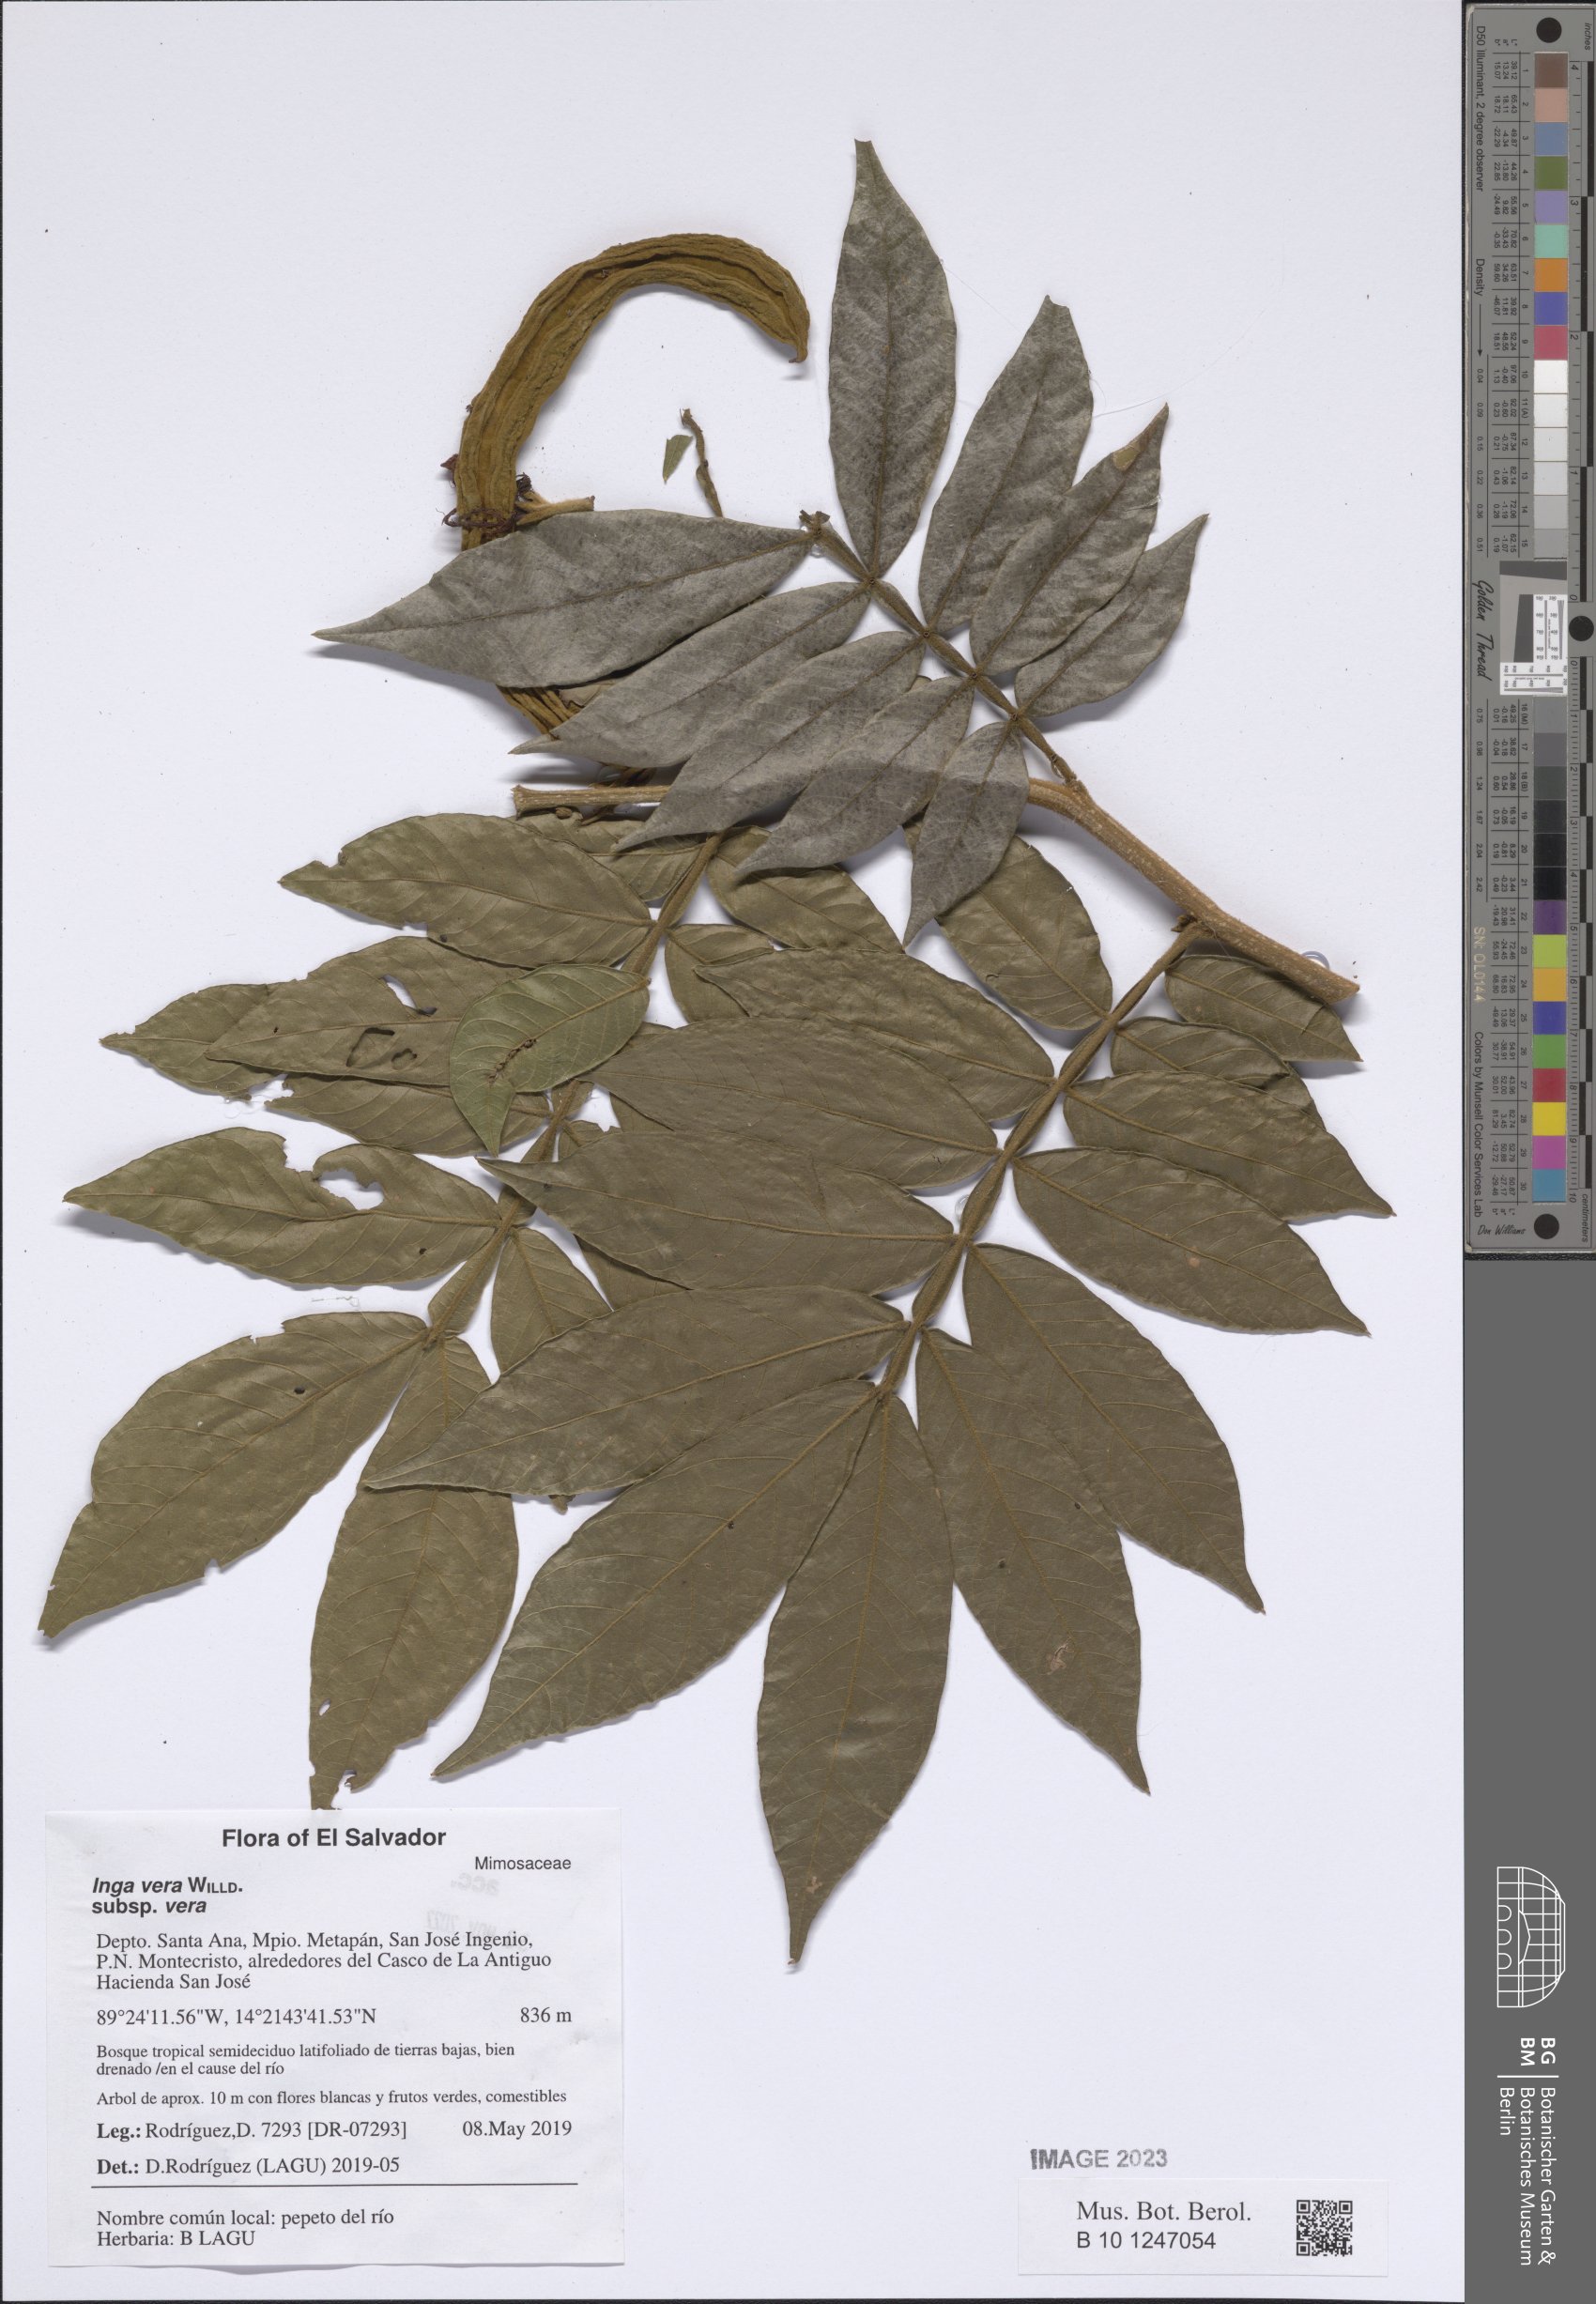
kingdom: Plantae
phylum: Tracheophyta
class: Magnoliopsida
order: Fabales
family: Fabaceae
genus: Inga
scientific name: Inga vera
